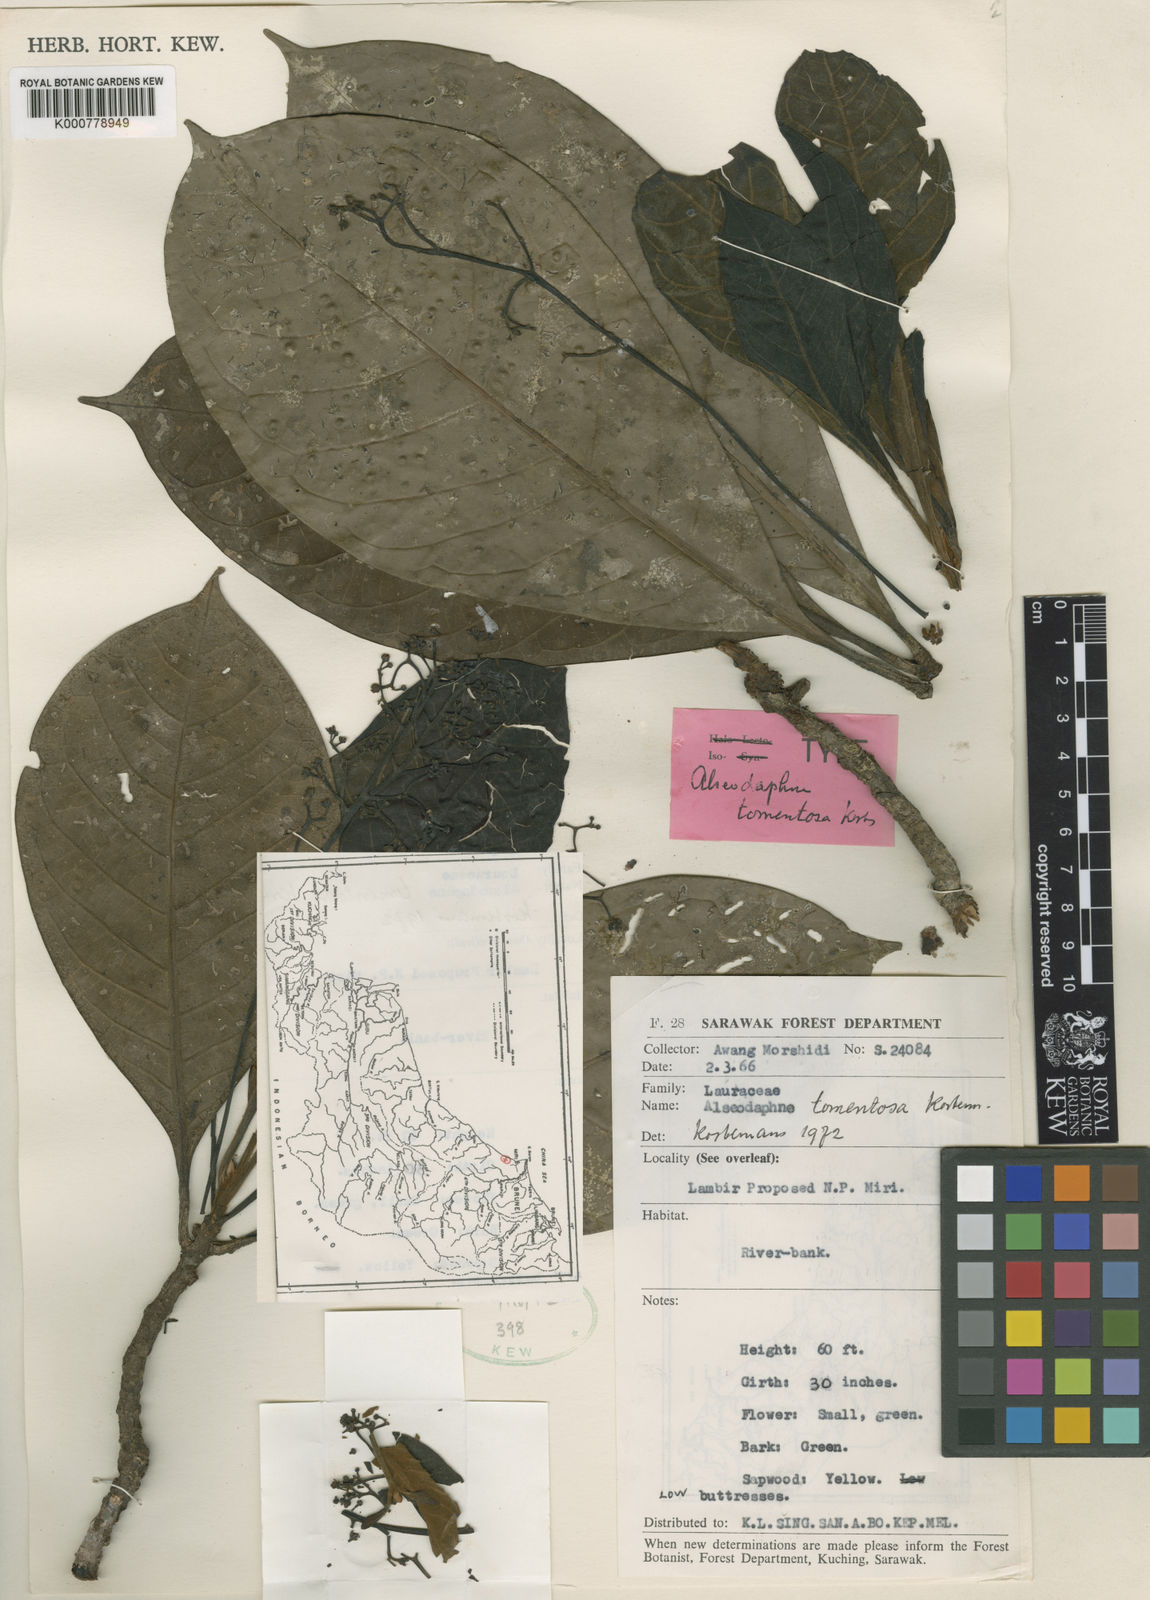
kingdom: Plantae
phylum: Tracheophyta
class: Magnoliopsida
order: Laurales
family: Lauraceae
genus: Alseodaphne
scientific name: Alseodaphne tomentosa
